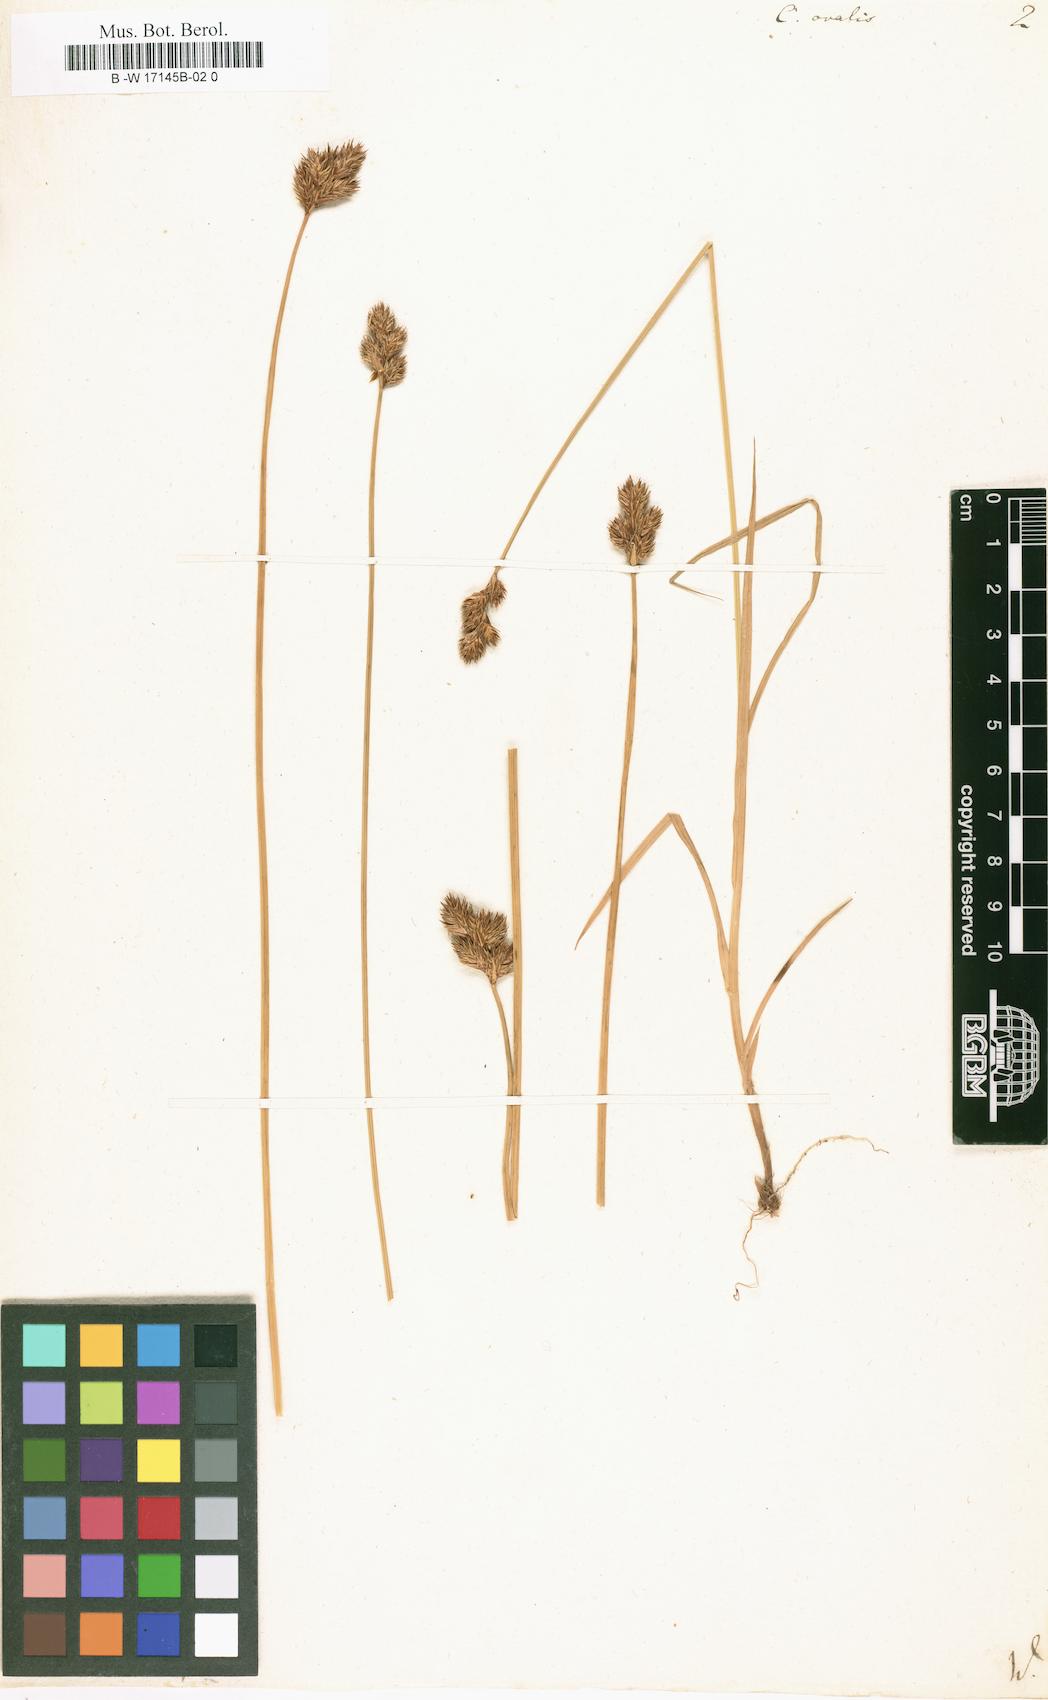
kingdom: Plantae
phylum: Tracheophyta
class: Liliopsida
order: Poales
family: Cyperaceae
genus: Carex
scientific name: Carex
